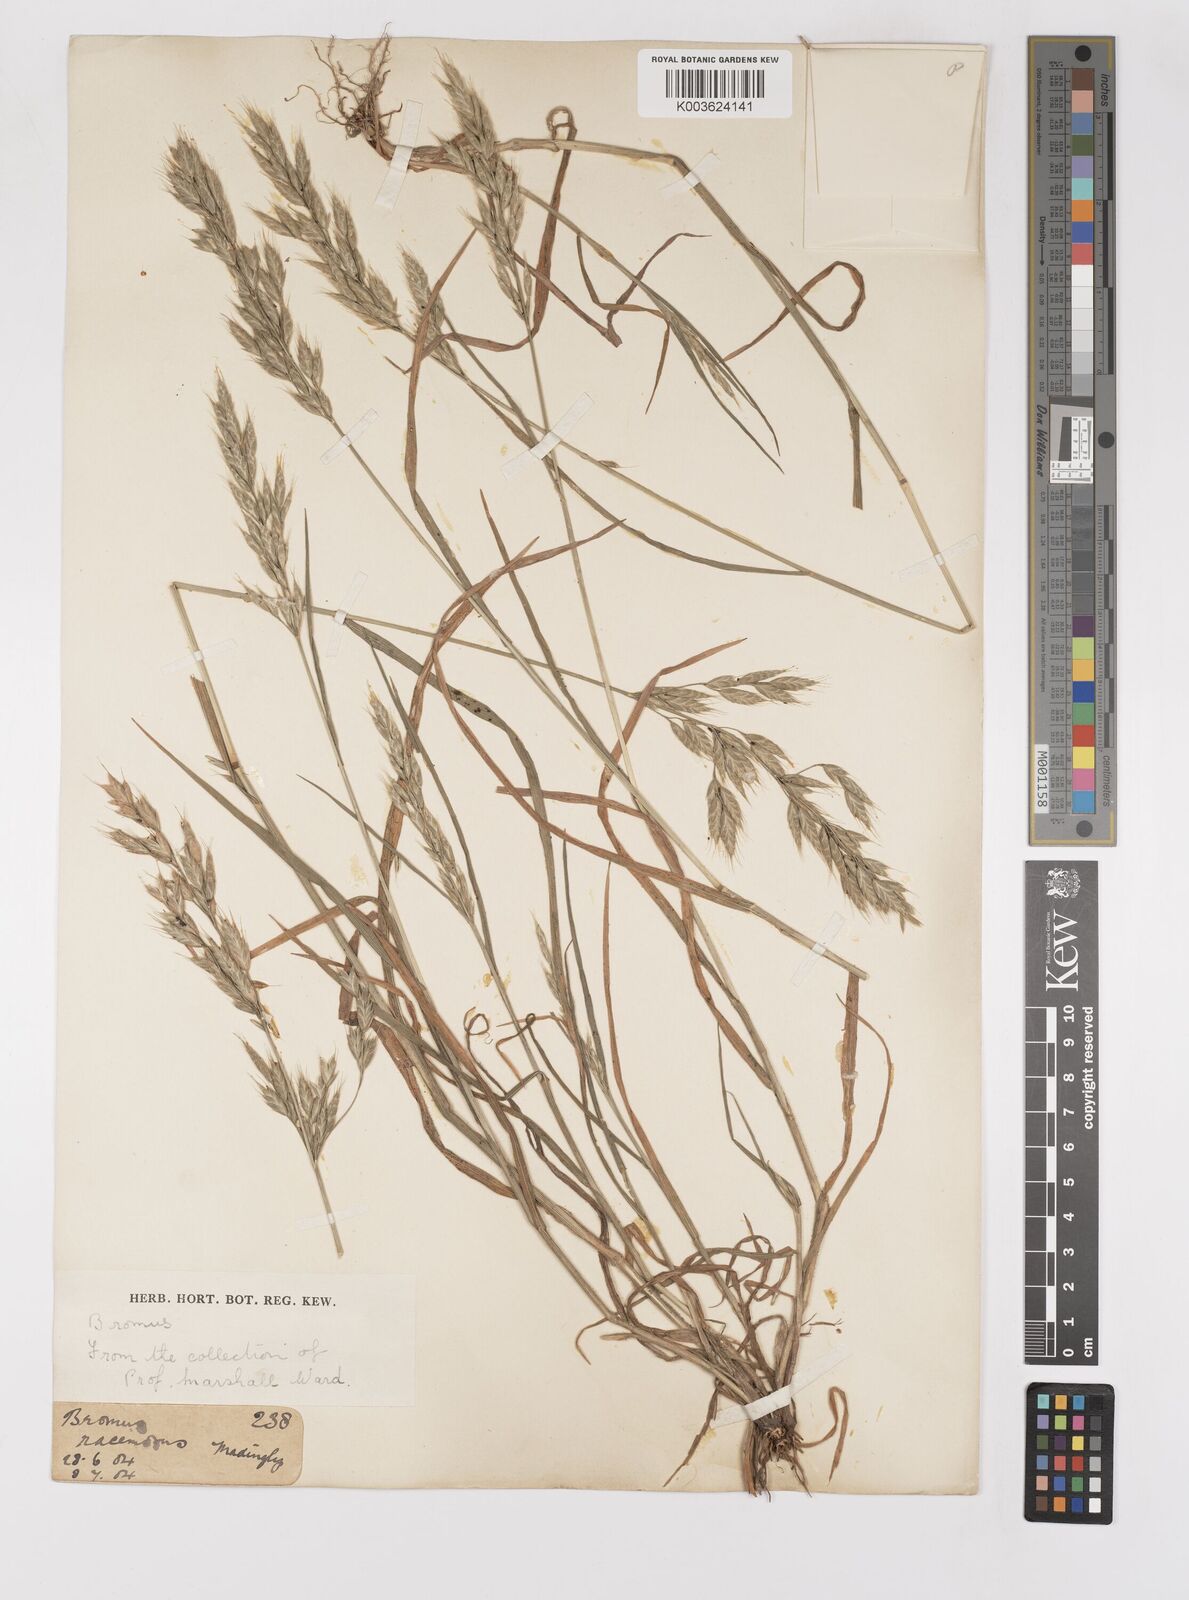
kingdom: Plantae
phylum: Tracheophyta
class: Liliopsida
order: Poales
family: Poaceae
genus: Bromus
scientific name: Bromus hordeaceus
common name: Soft brome
